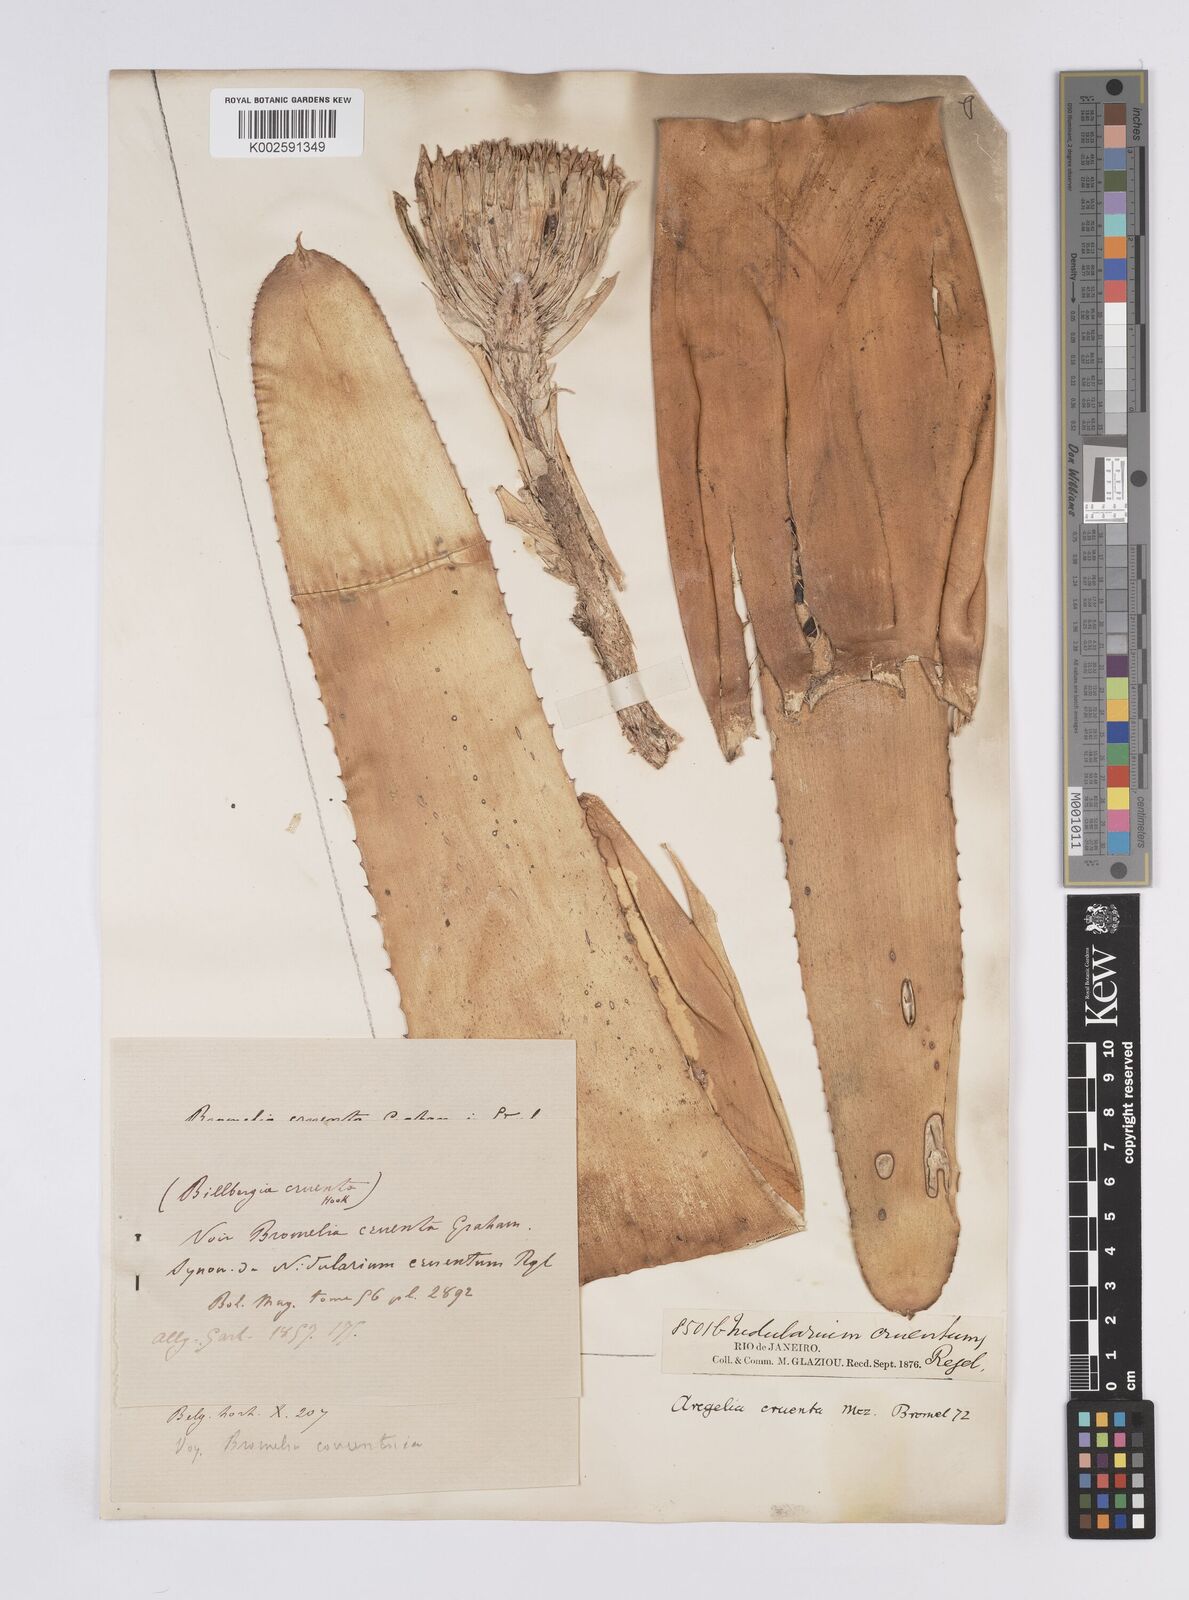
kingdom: Plantae
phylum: Tracheophyta
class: Liliopsida
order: Poales
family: Bromeliaceae
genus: Neoregelia
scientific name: Neoregelia cruenta
